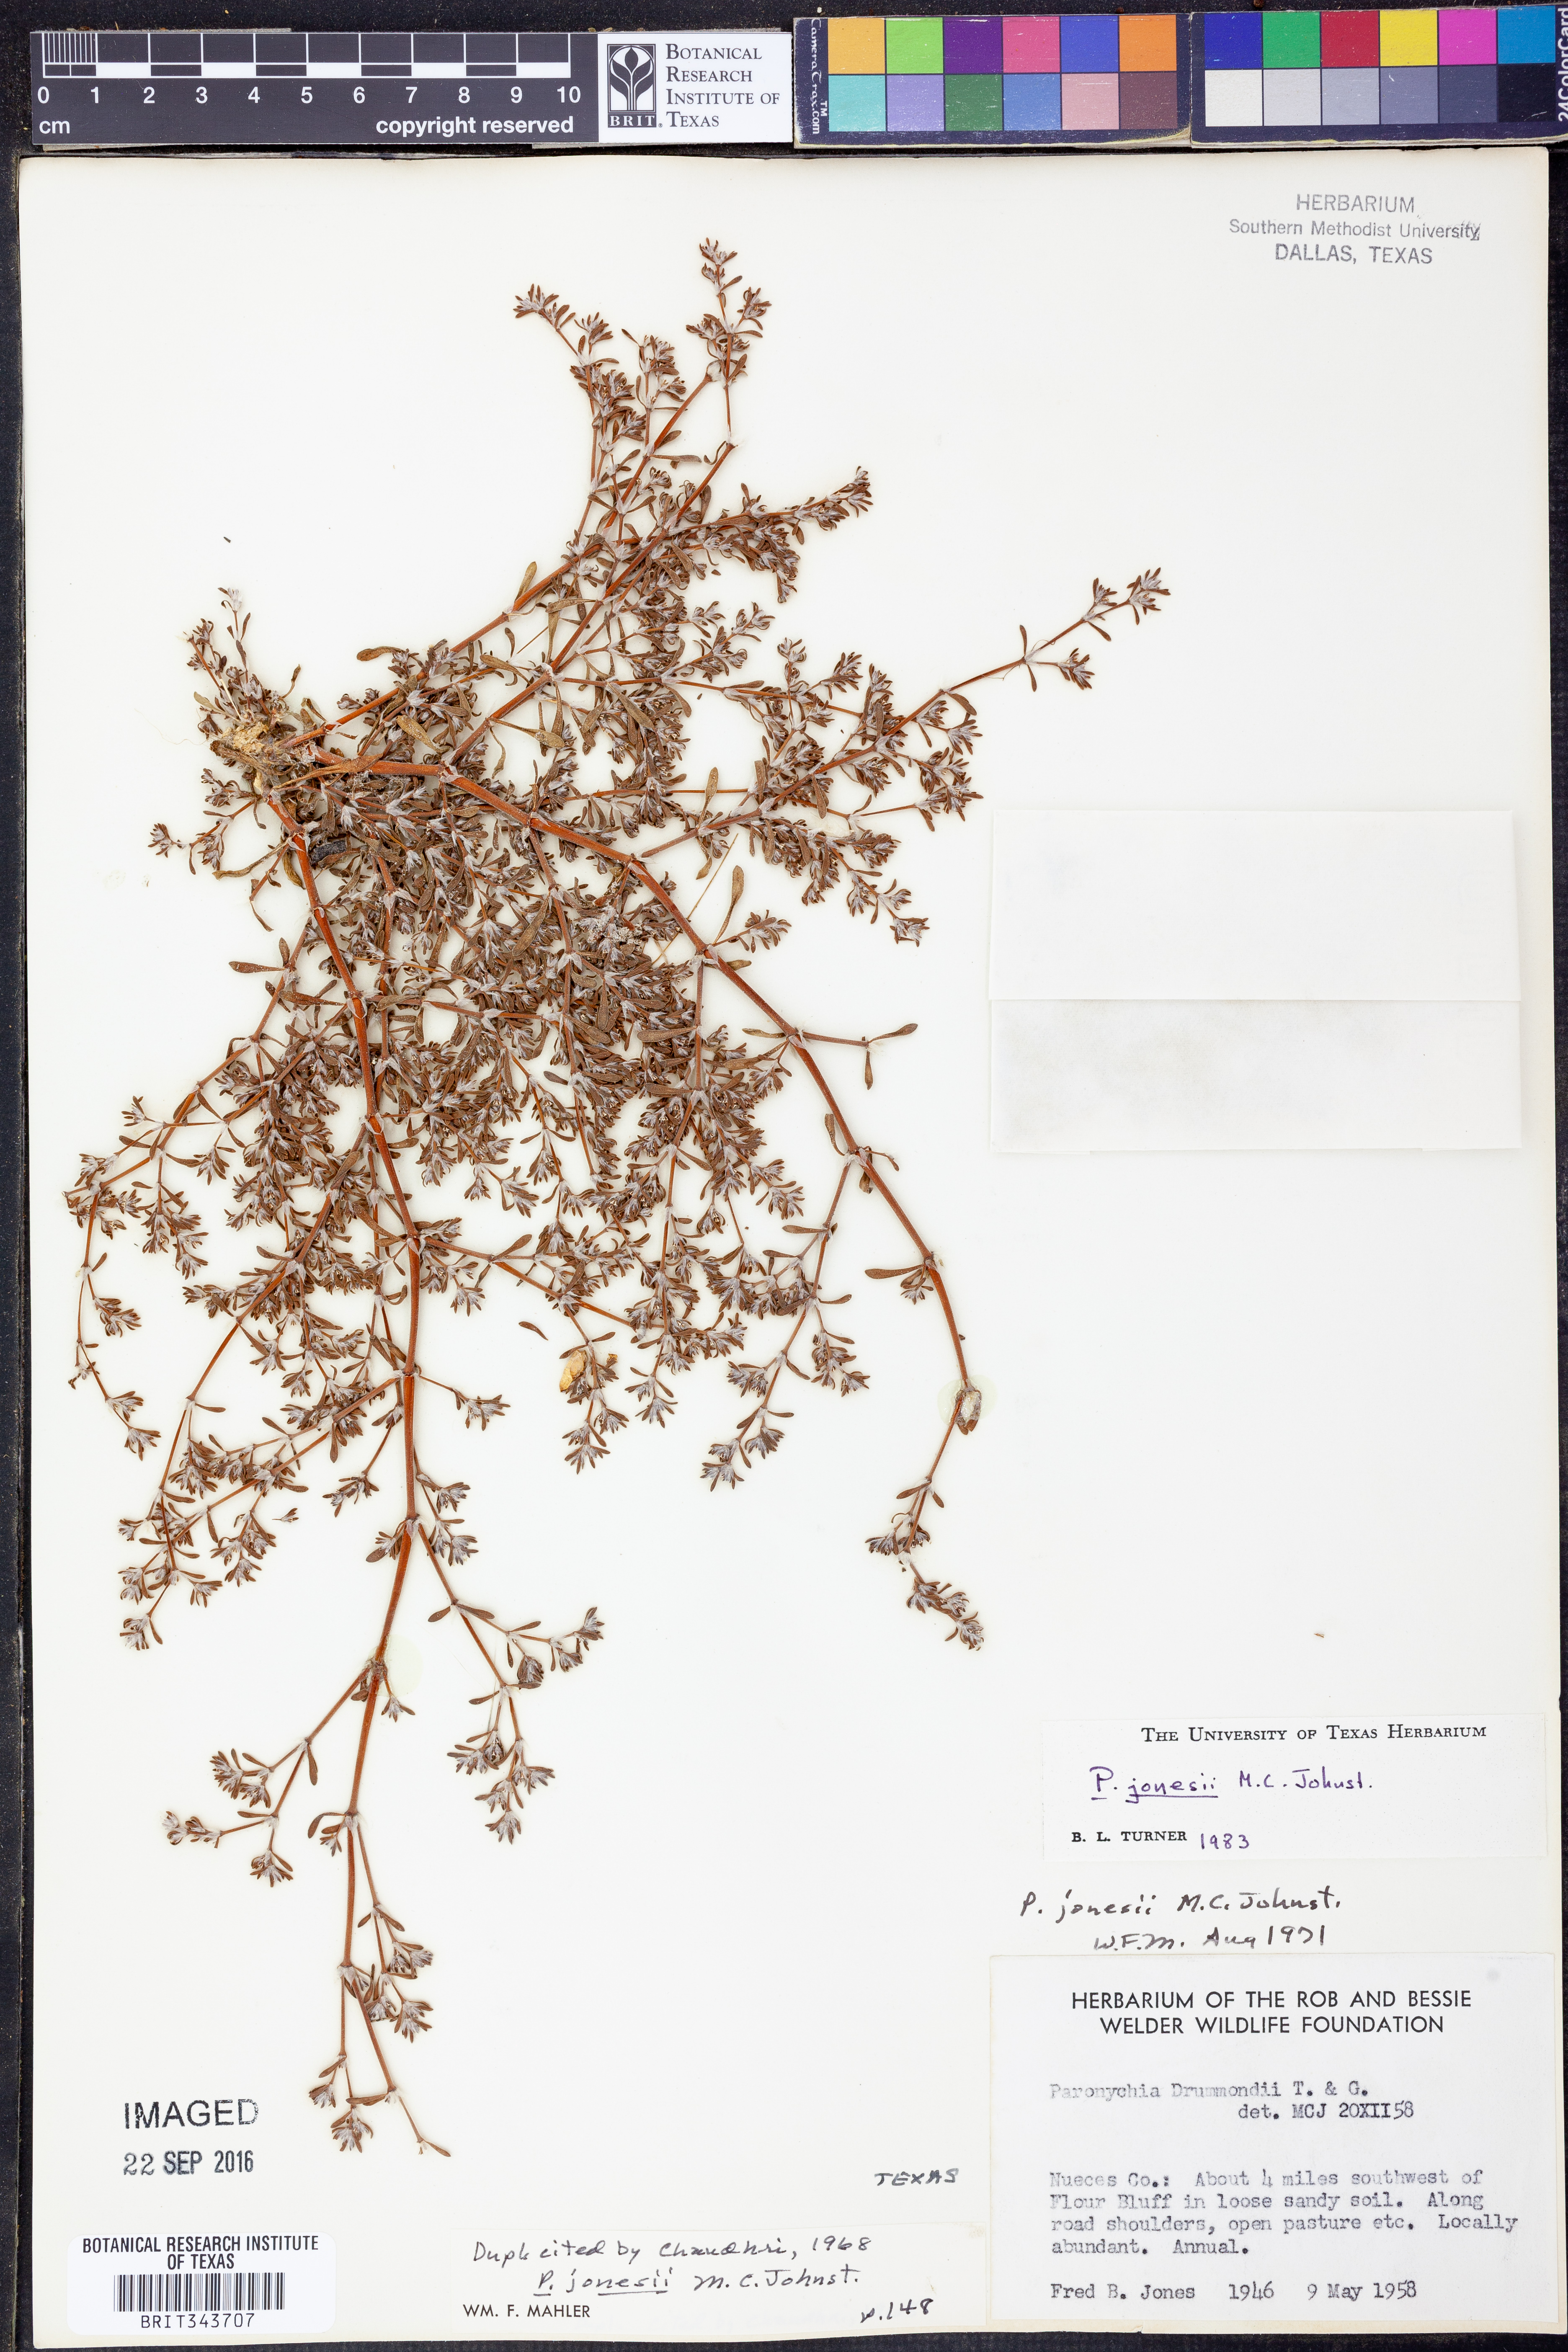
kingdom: Plantae
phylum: Tracheophyta
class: Magnoliopsida
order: Caryophyllales
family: Caryophyllaceae
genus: Paronychia
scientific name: Paronychia jamesii
